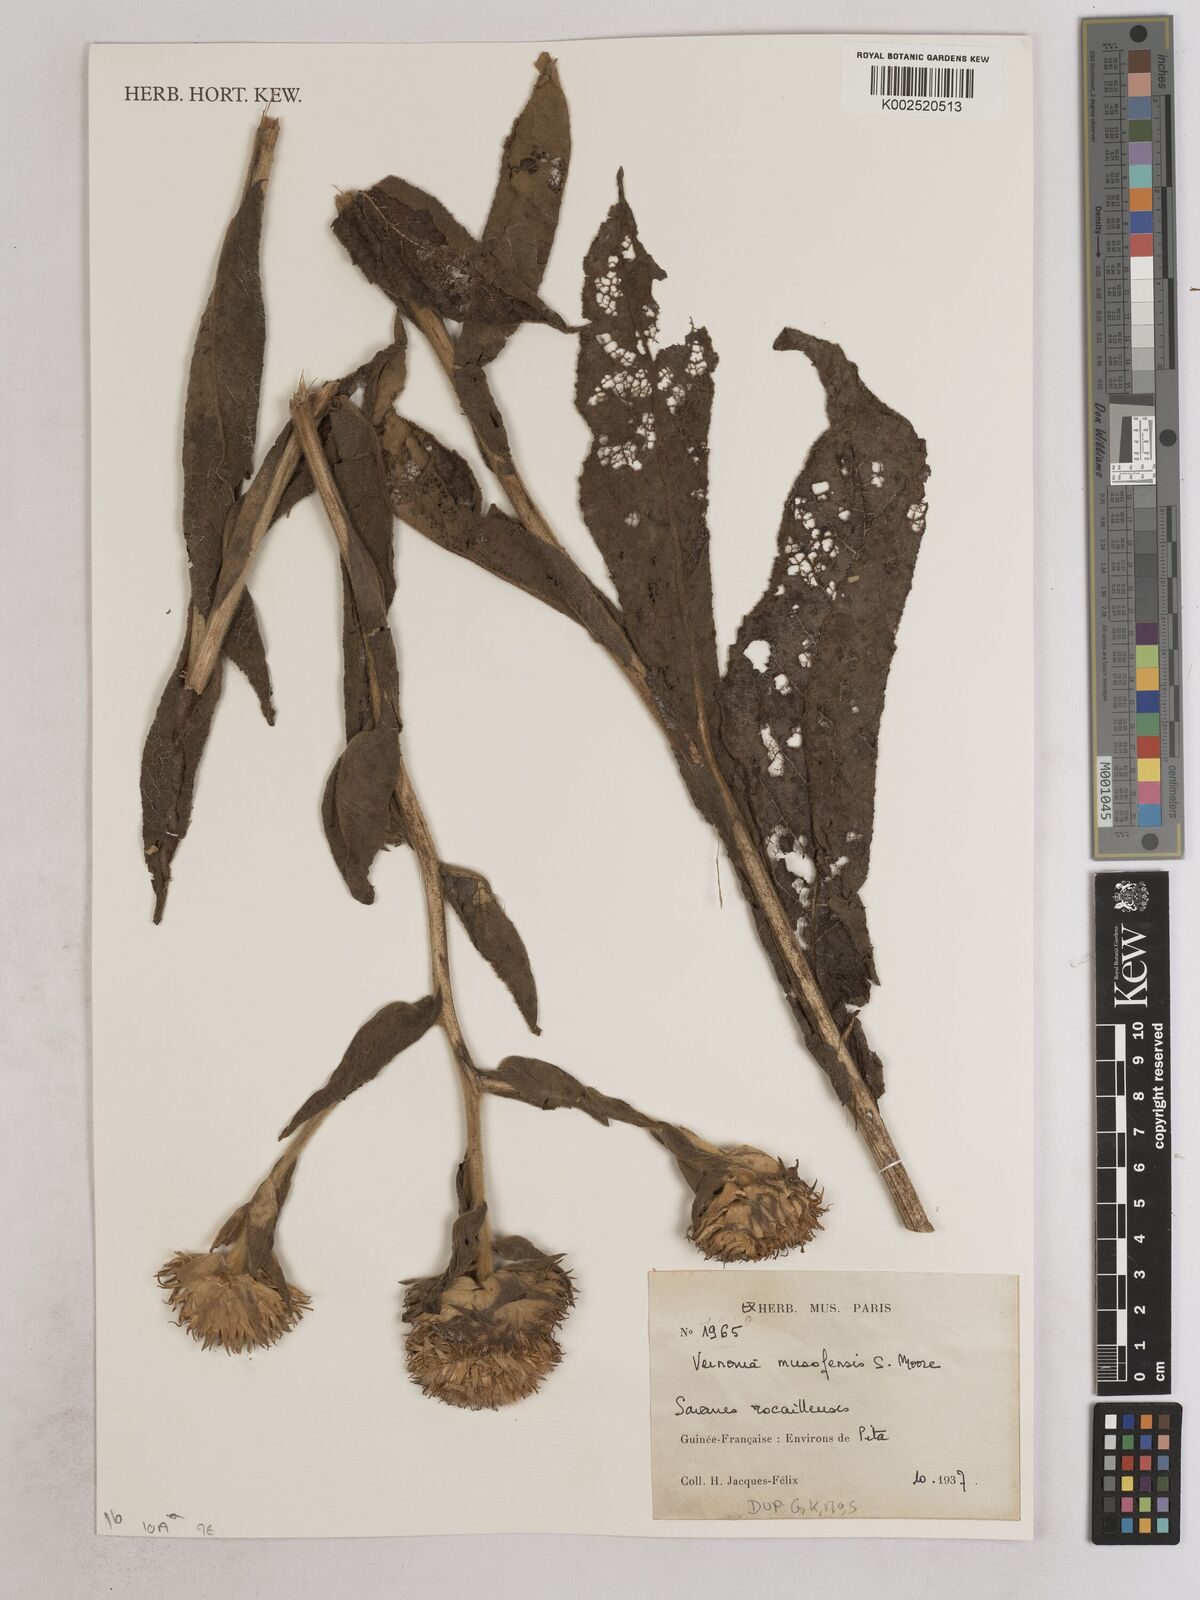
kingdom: Plantae
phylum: Tracheophyta
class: Magnoliopsida
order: Asterales
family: Asteraceae
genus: Vernoniastrum
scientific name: Vernoniastrum musofense
